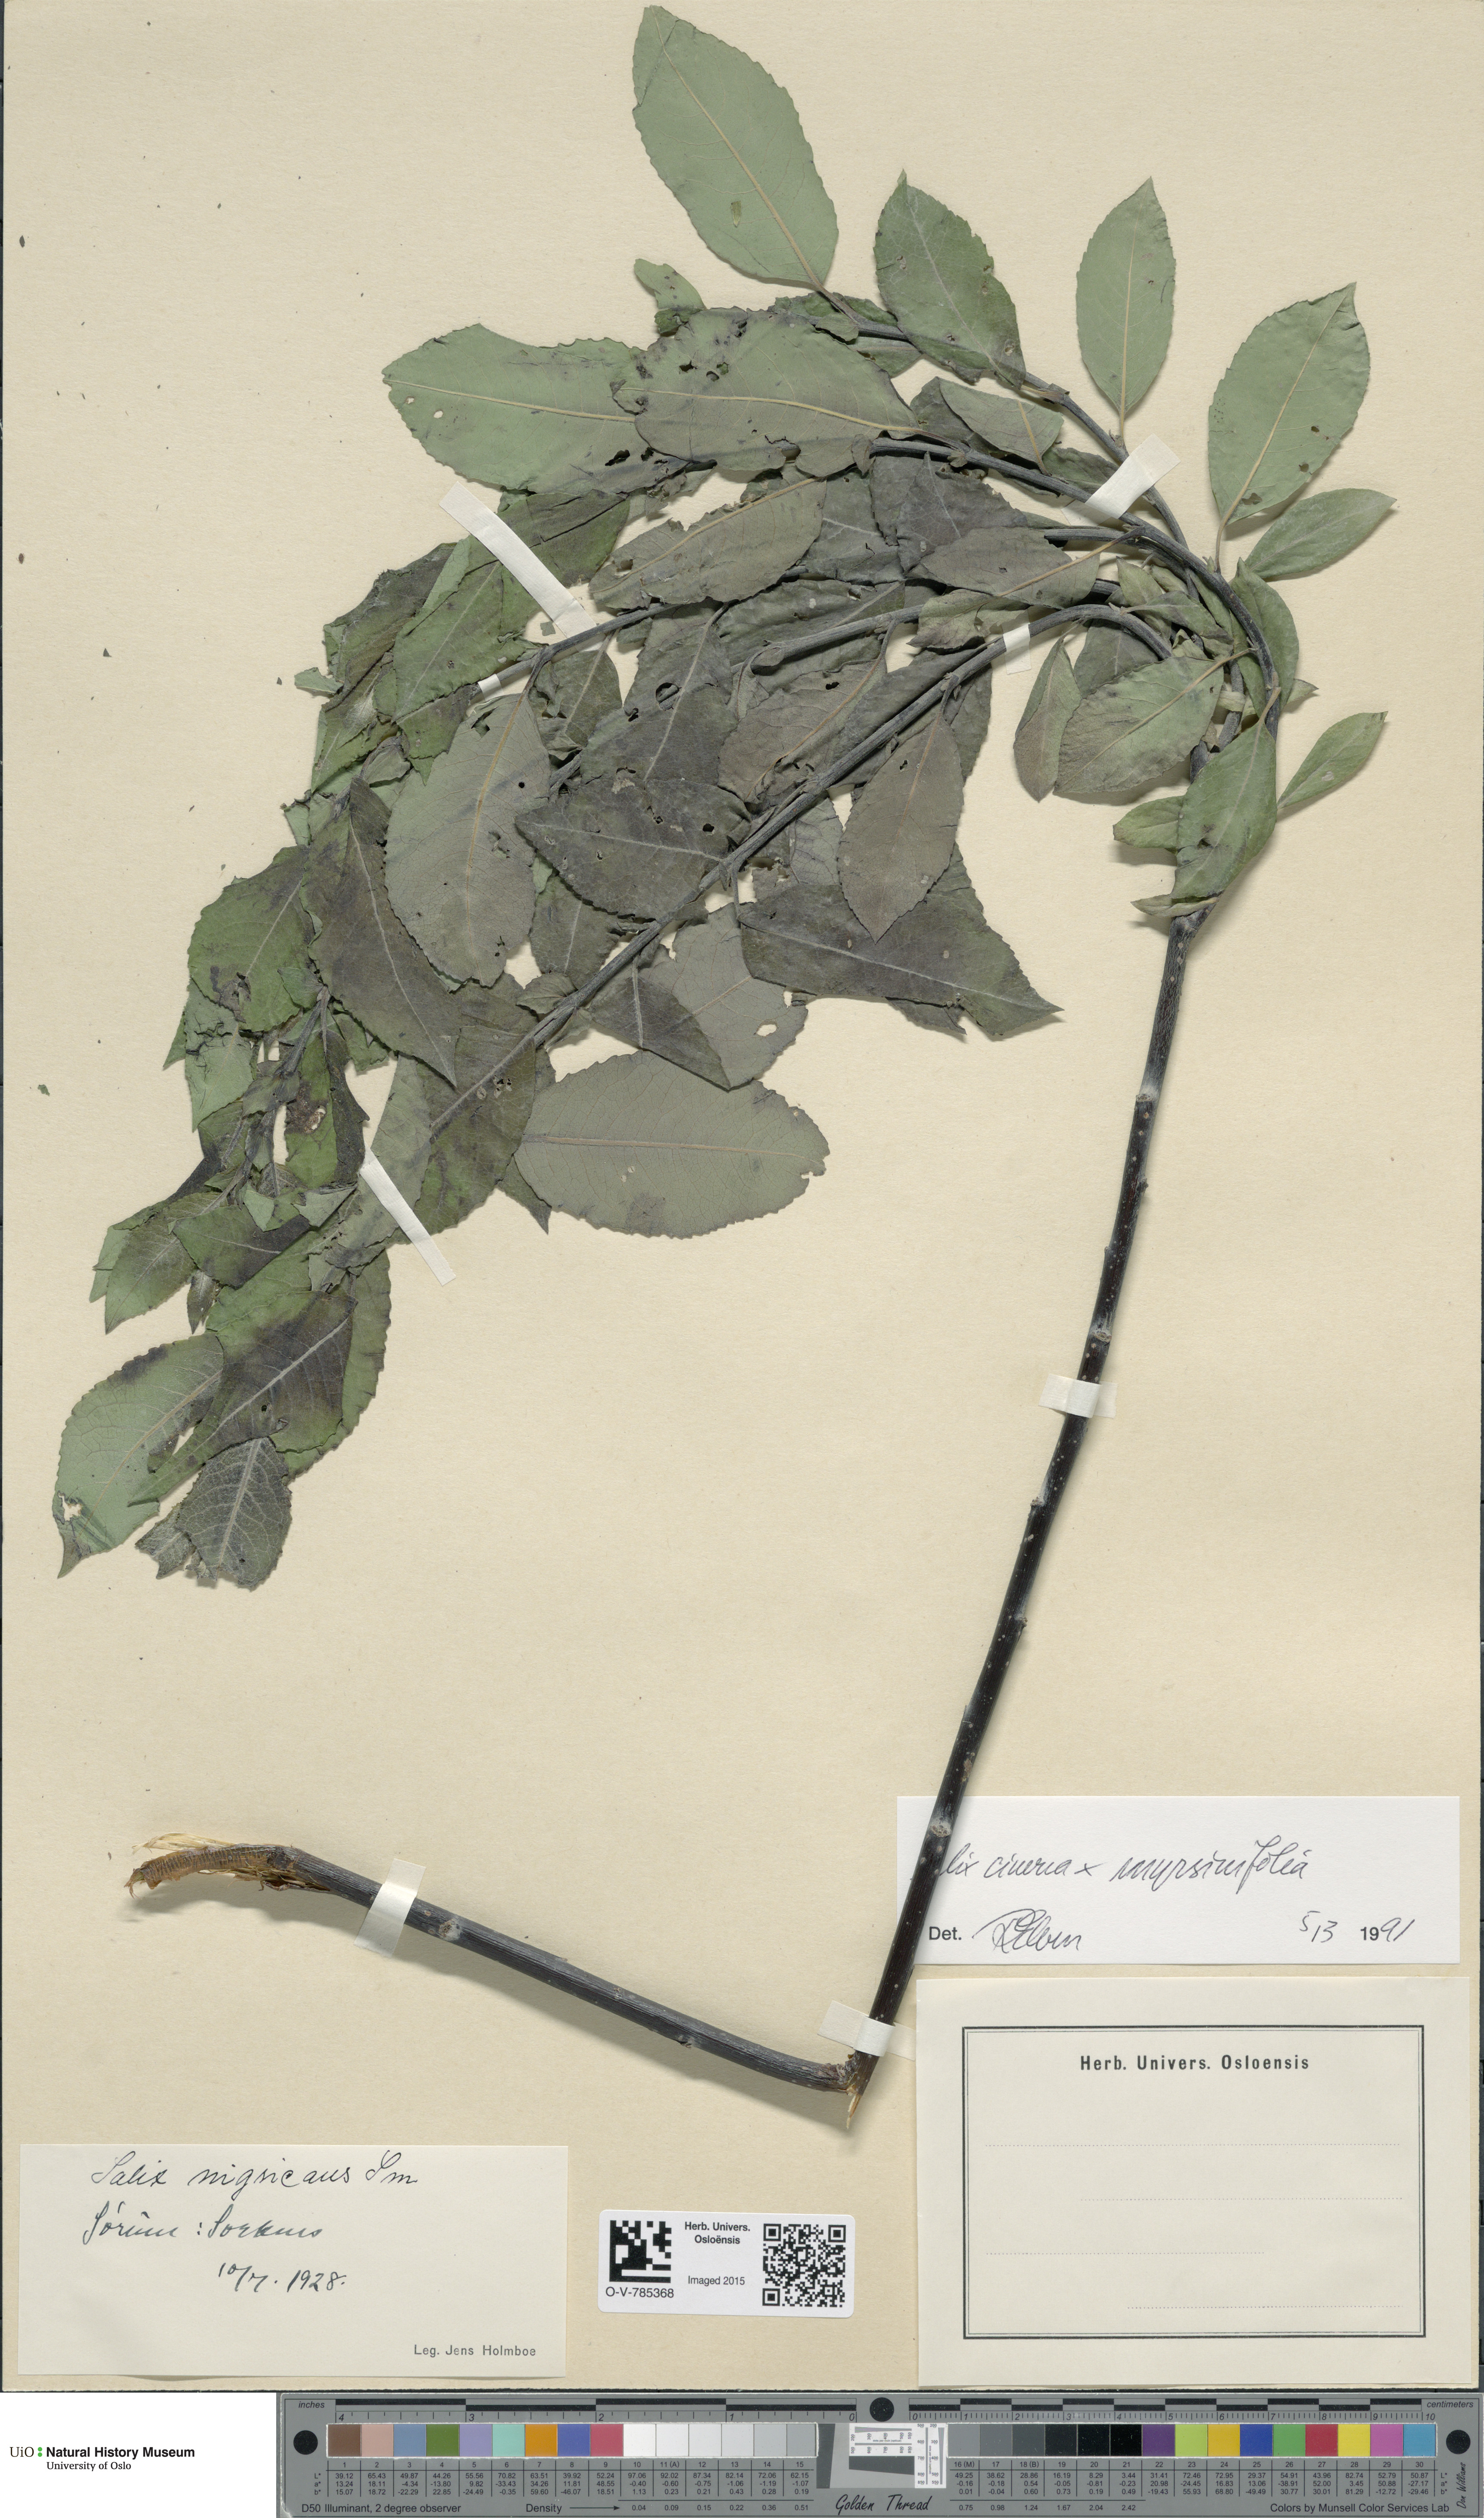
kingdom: Plantae
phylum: Tracheophyta
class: Magnoliopsida
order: Malpighiales
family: Salicaceae
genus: Salix
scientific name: Salix
